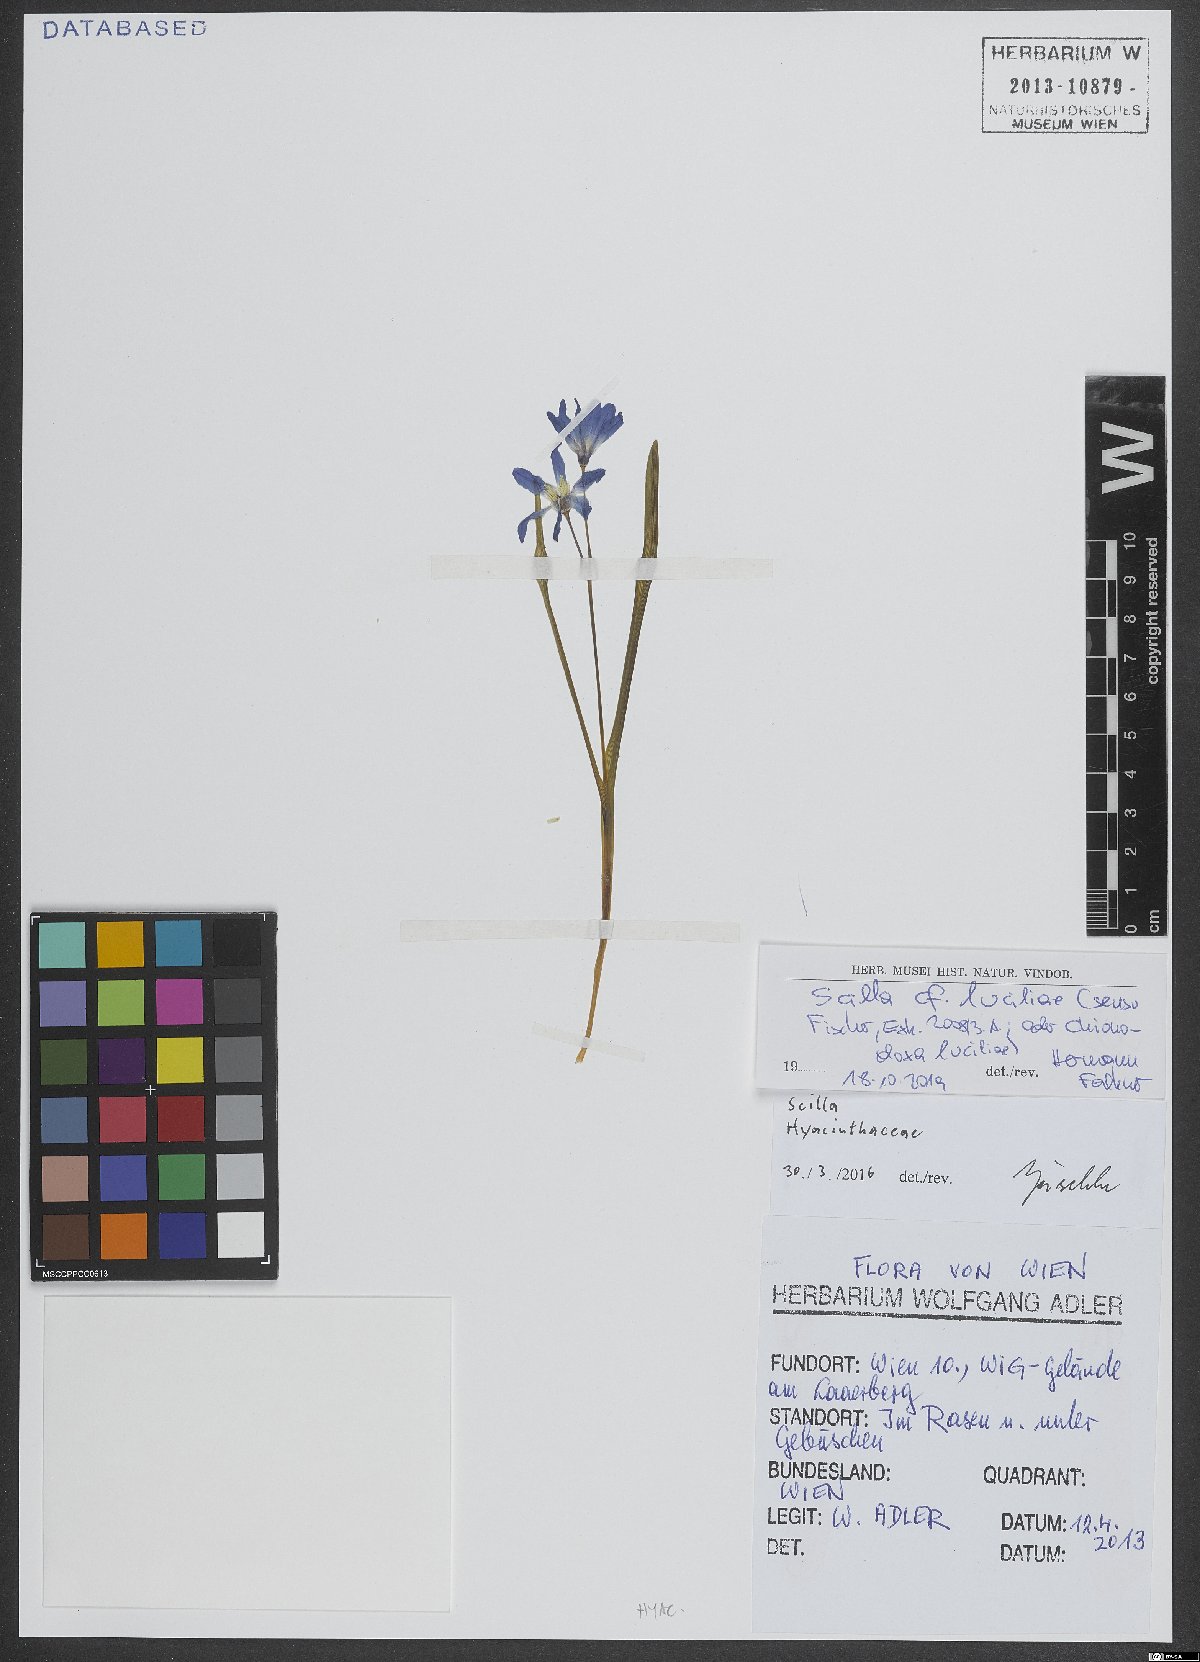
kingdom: Plantae
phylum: Tracheophyta
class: Liliopsida
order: Asparagales
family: Asparagaceae
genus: Scilla
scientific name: Scilla luciliae
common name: Boissier's glory-of-the-snow
